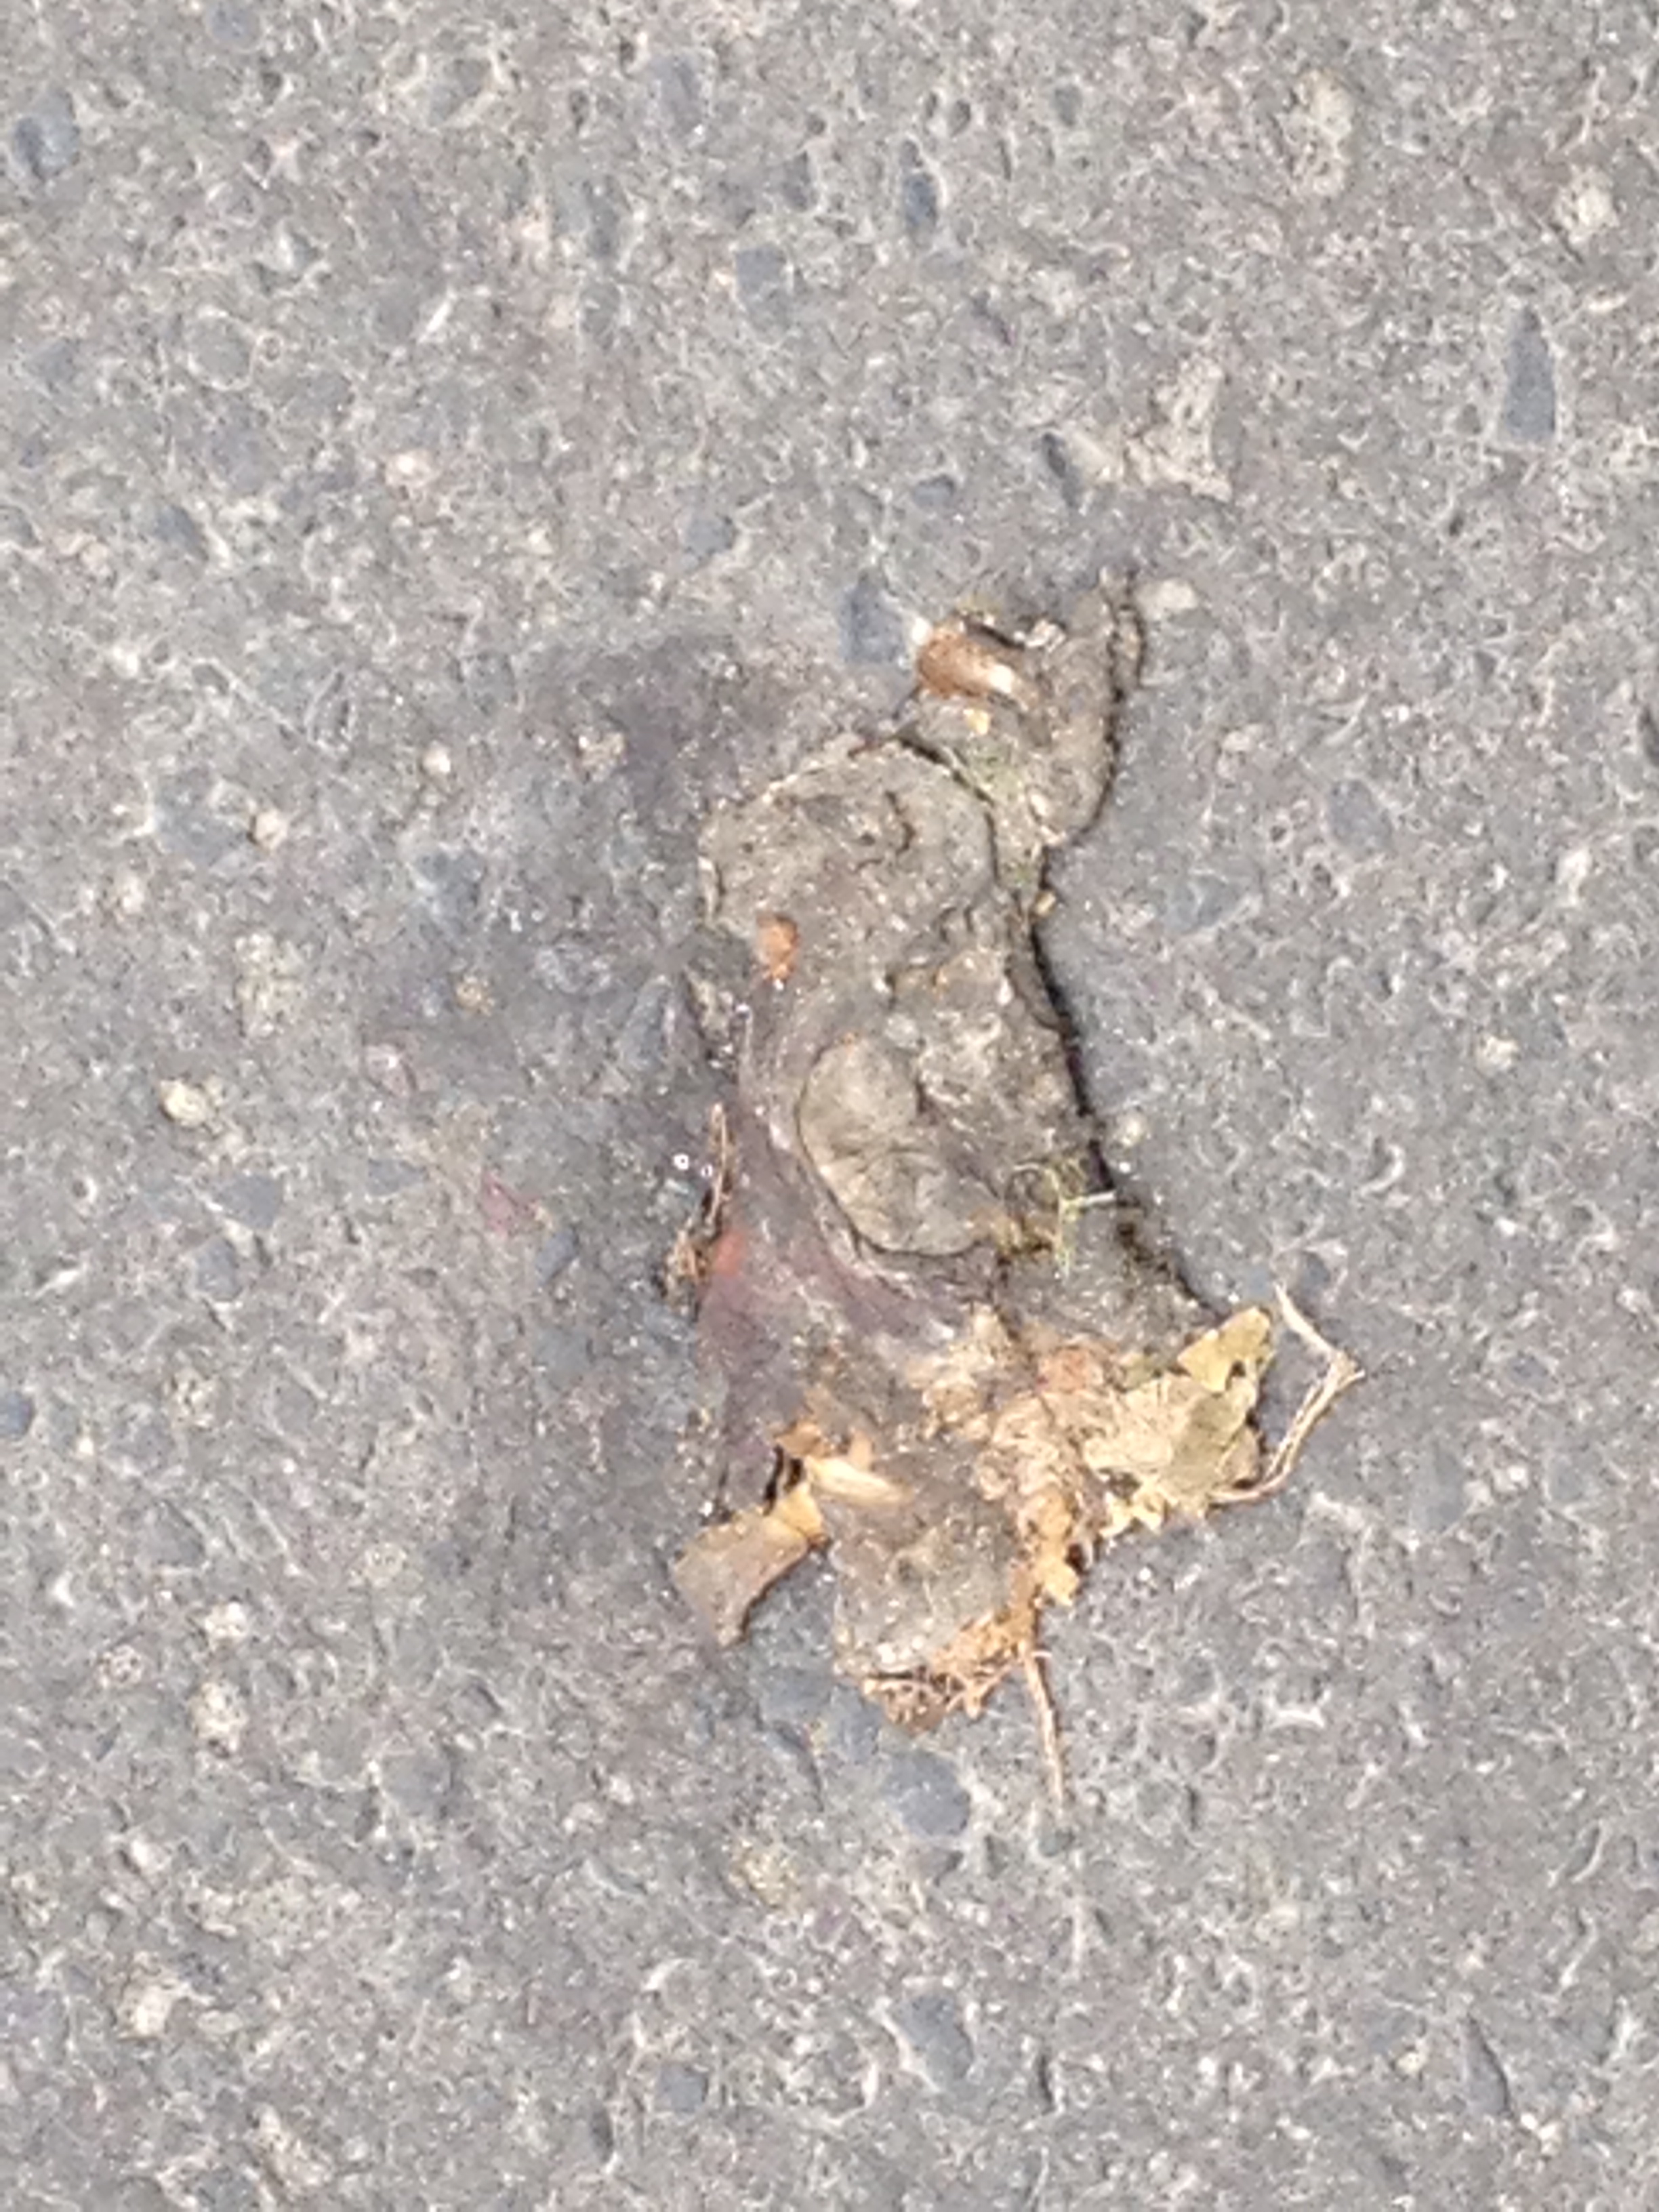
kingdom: Animalia
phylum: Chordata
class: Amphibia
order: Anura
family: Bufonidae
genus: Bufo
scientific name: Bufo bufo
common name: Common toad
